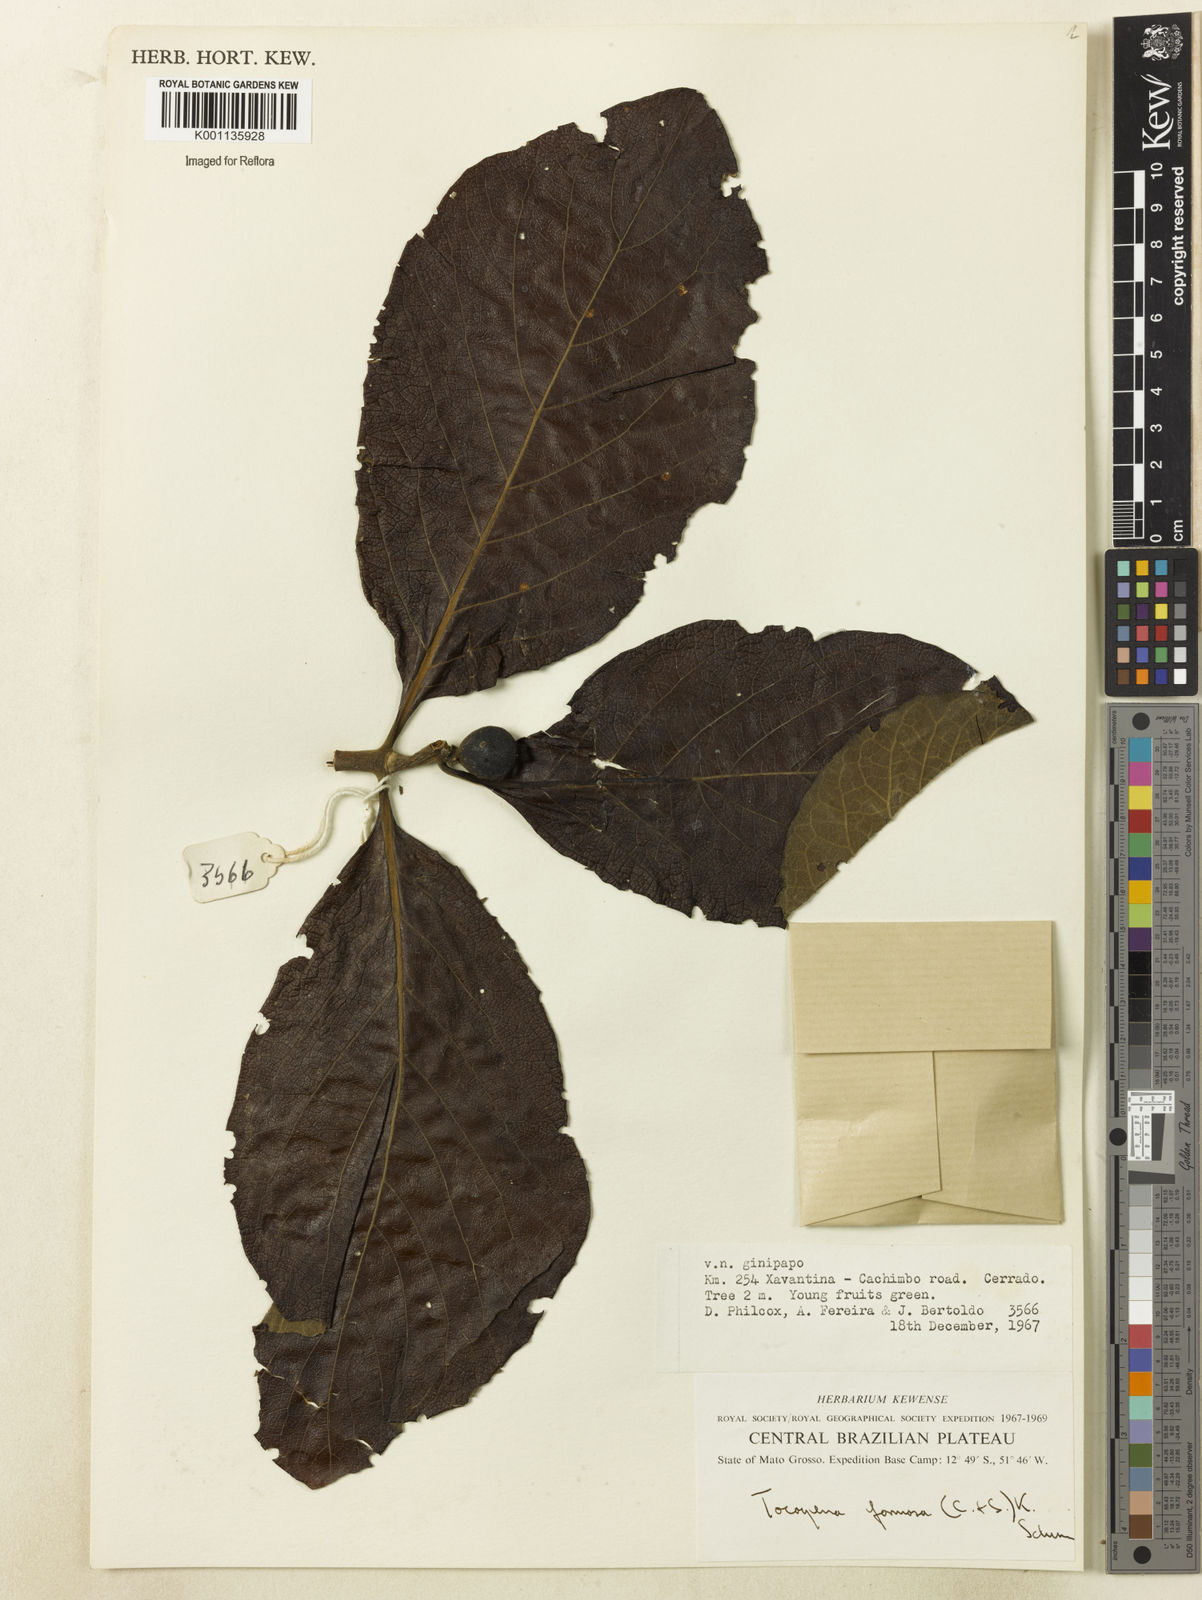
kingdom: Plantae
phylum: Tracheophyta
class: Magnoliopsida
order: Gentianales
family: Rubiaceae
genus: Tocoyena
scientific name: Tocoyena formosa
